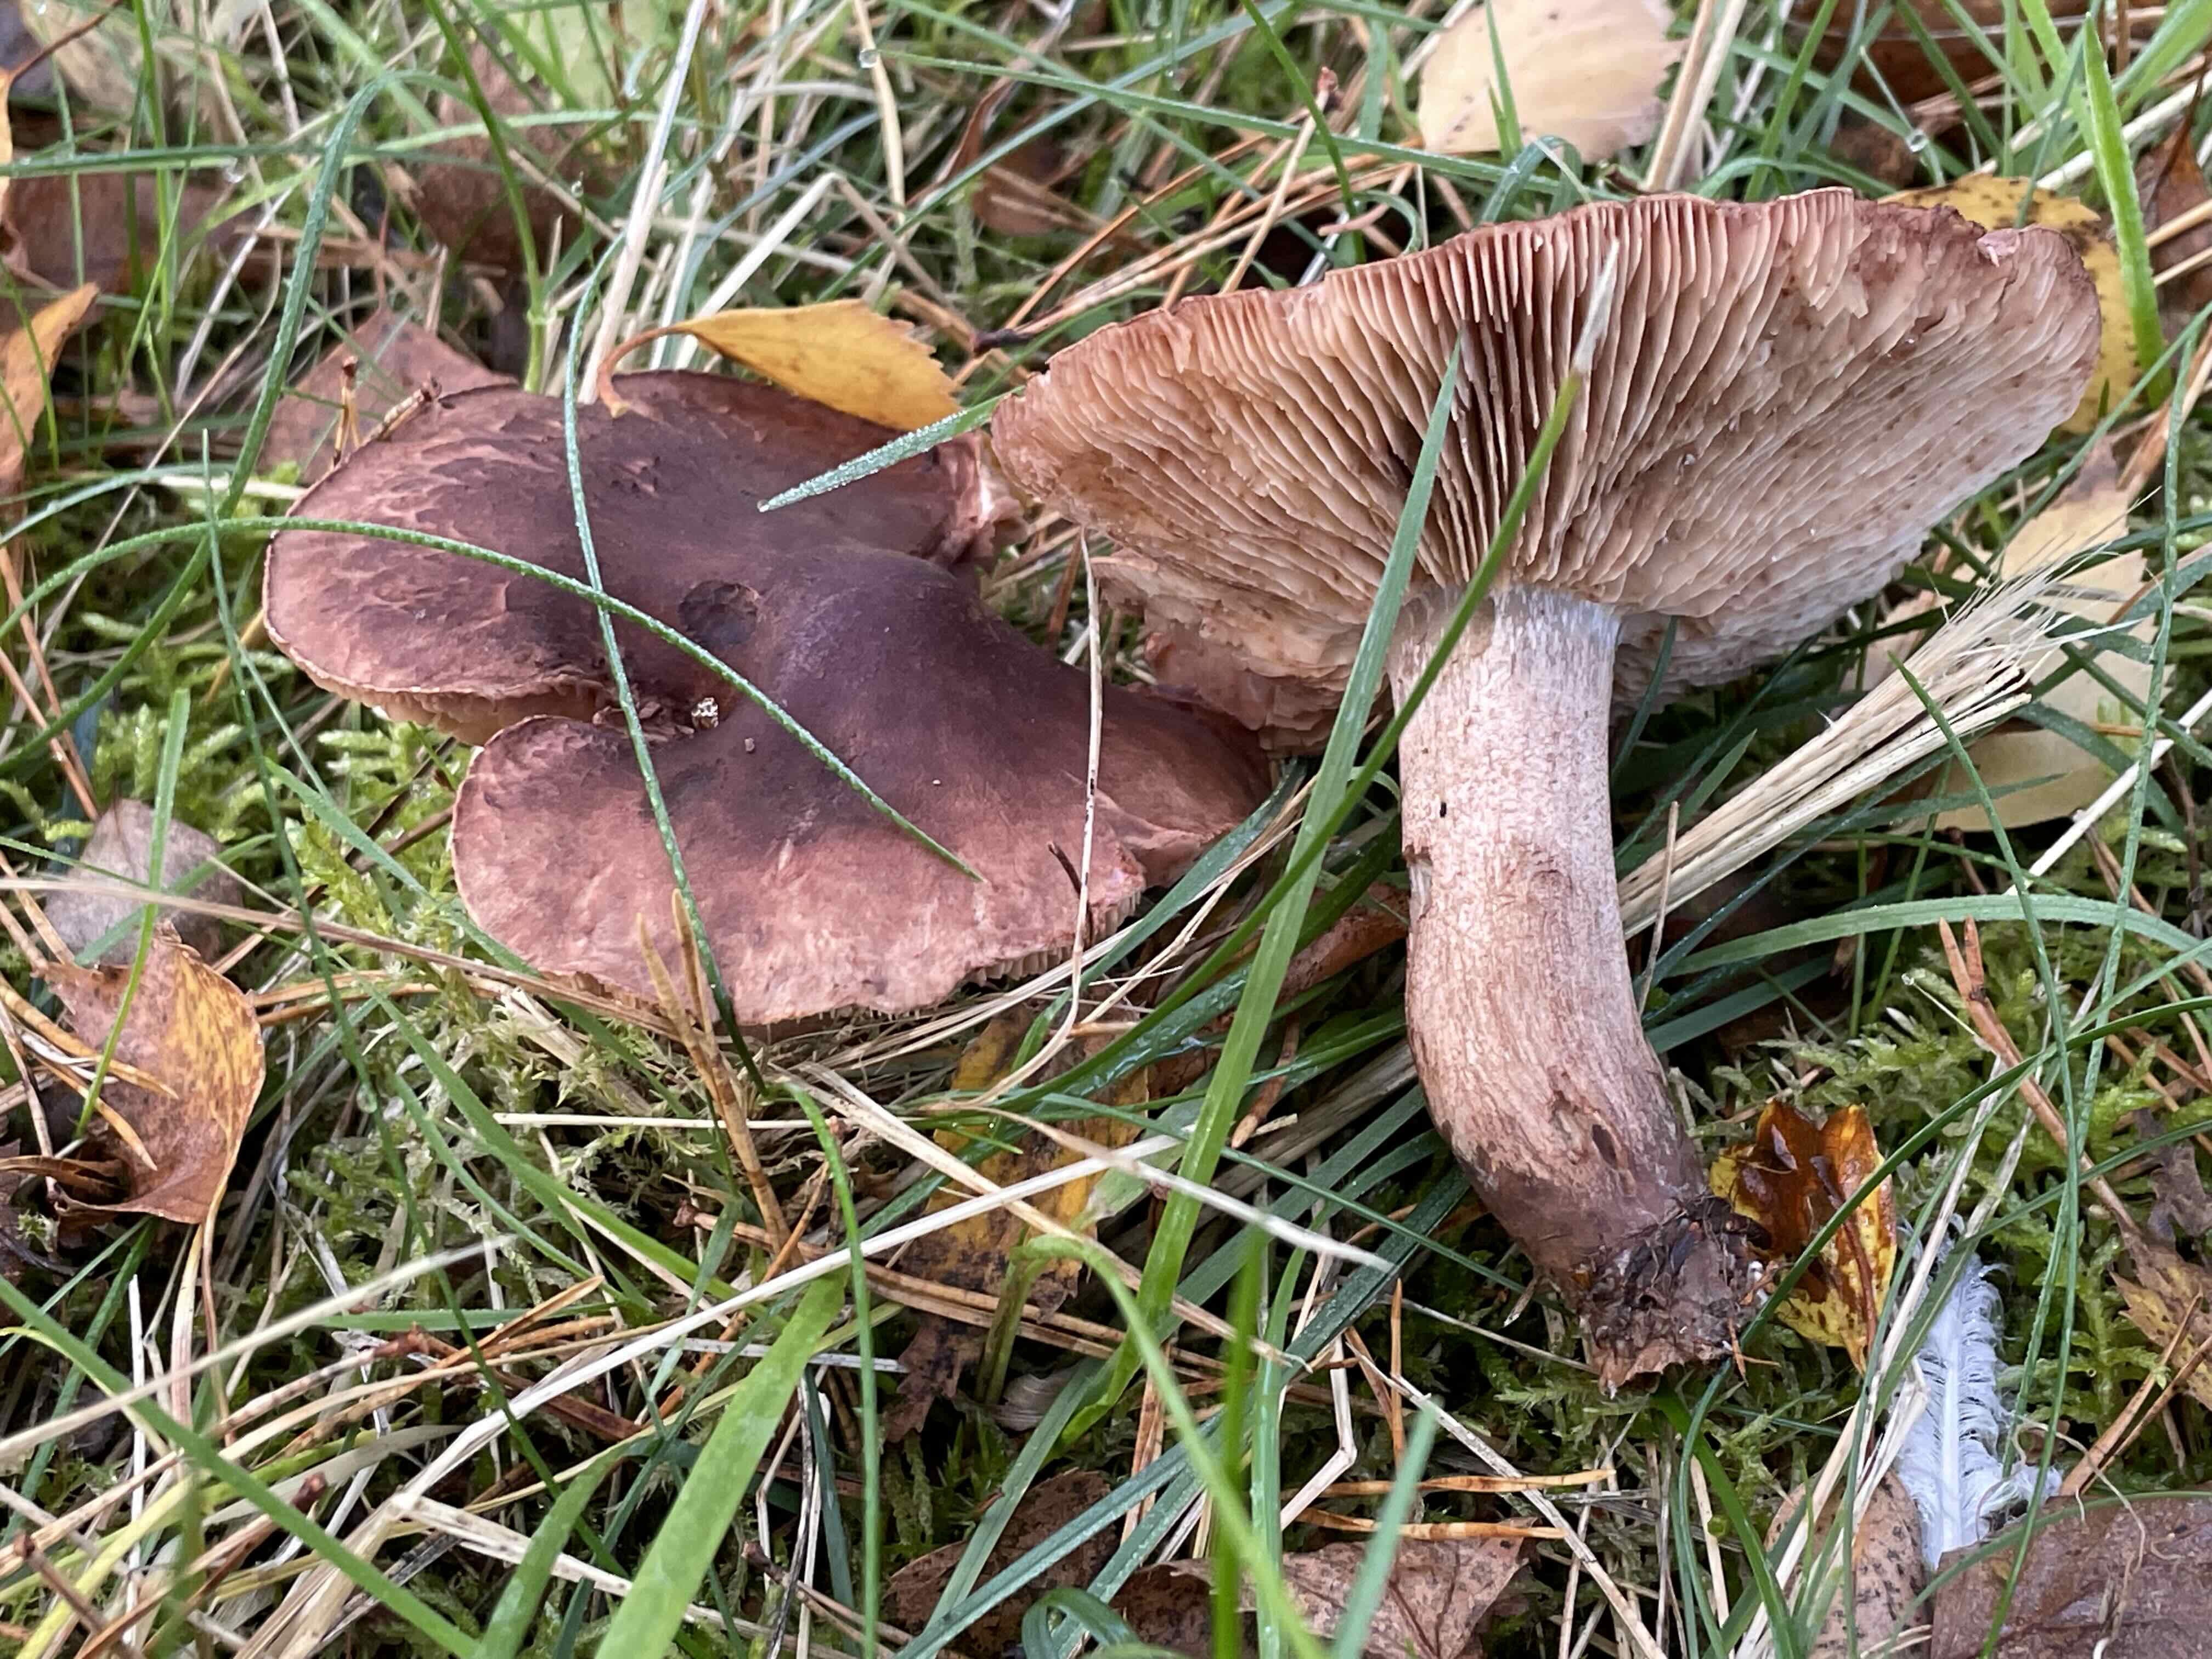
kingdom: Fungi
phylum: Basidiomycota
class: Agaricomycetes
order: Agaricales
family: Tricholomataceae
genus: Tricholoma
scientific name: Tricholoma imbricatum
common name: skællet ridderhat
